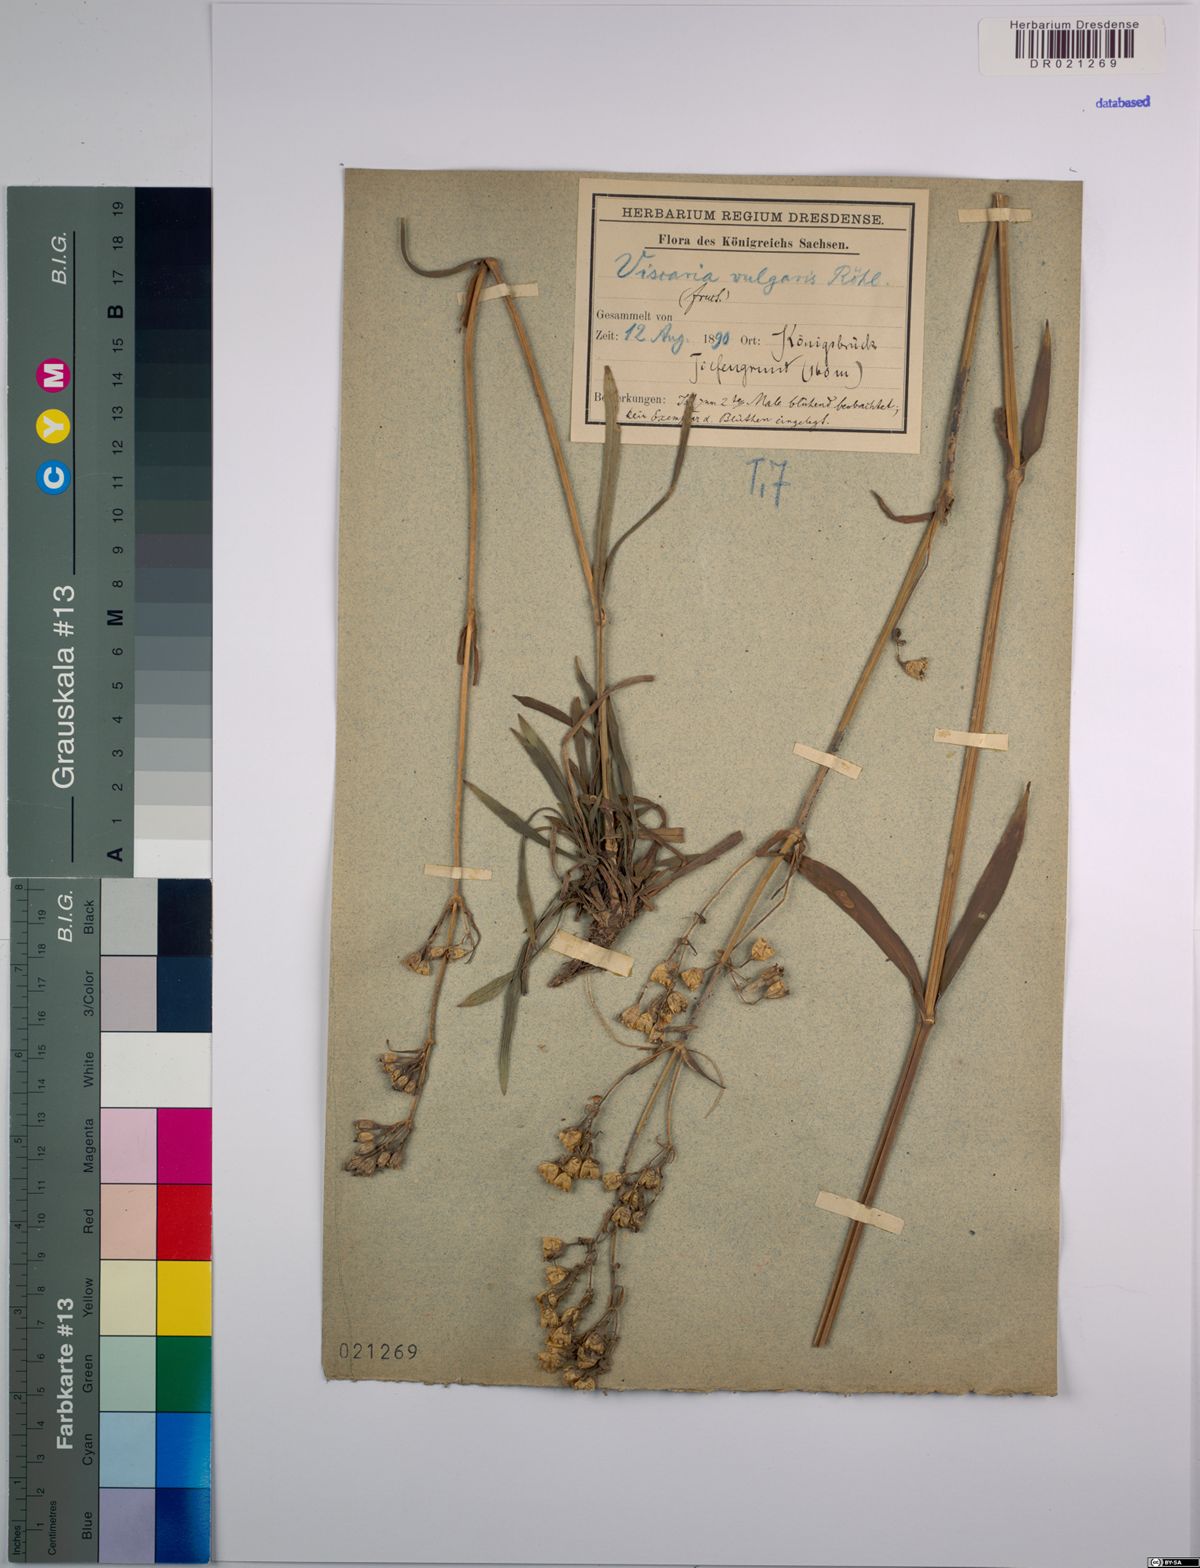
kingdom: Plantae
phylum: Tracheophyta
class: Magnoliopsida
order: Caryophyllales
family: Caryophyllaceae
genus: Viscaria
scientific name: Viscaria vulgaris
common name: Clammy campion
